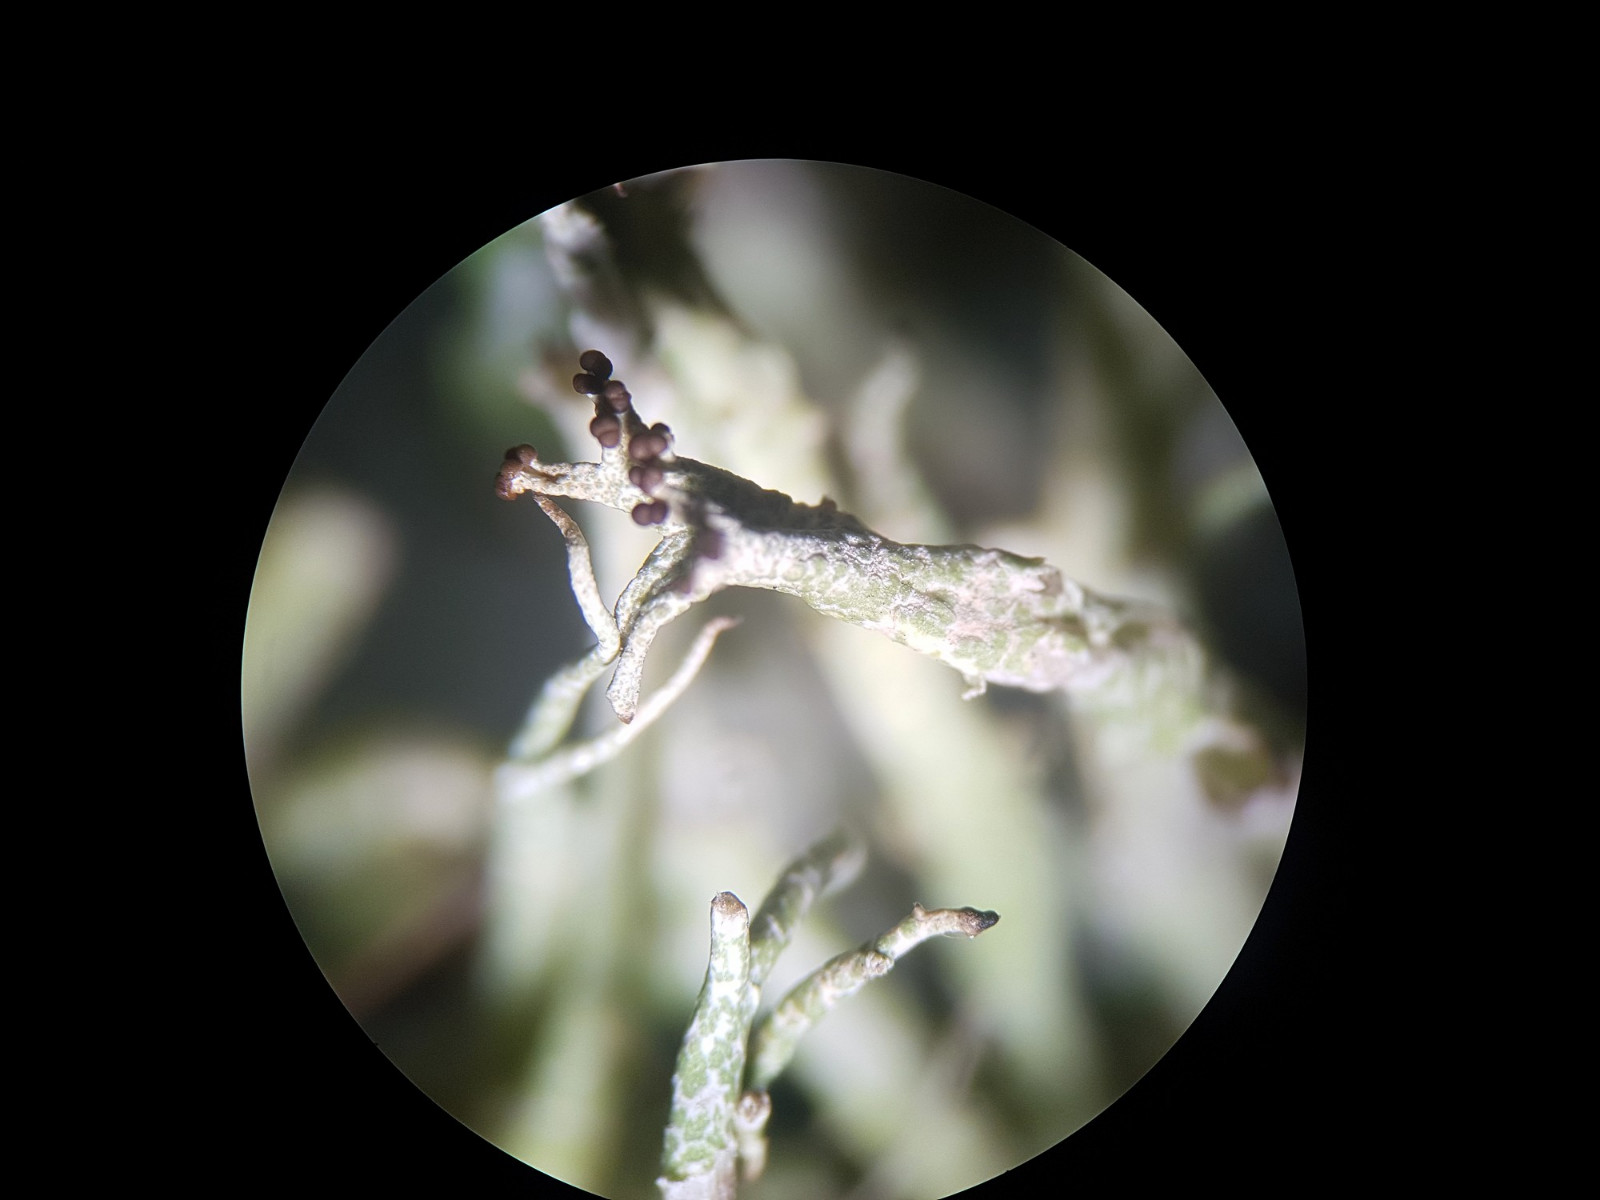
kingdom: Fungi
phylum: Ascomycota
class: Lecanoromycetes
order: Lecanorales
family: Cladoniaceae
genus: Cladonia
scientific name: Cladonia rangiformis
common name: spættet bægerlav
